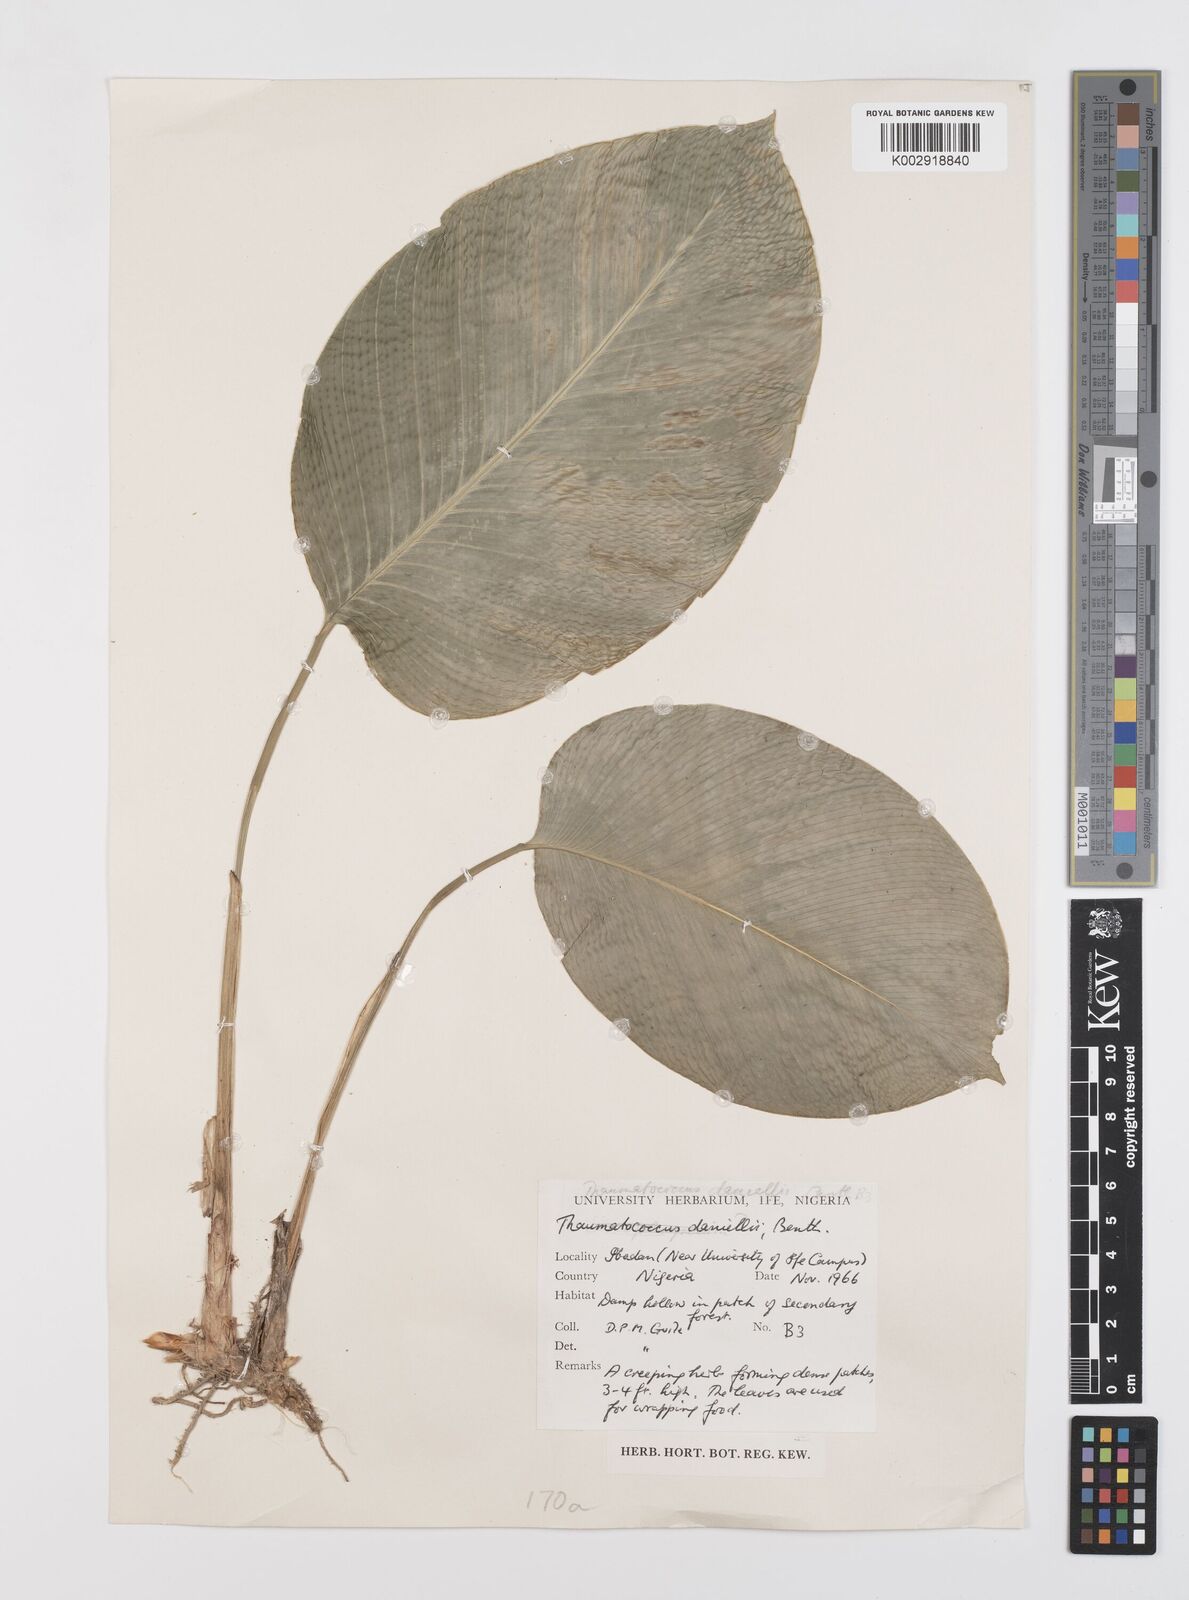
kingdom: Plantae
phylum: Tracheophyta
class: Liliopsida
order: Zingiberales
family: Marantaceae
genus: Thaumatococcus
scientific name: Thaumatococcus daniellii
